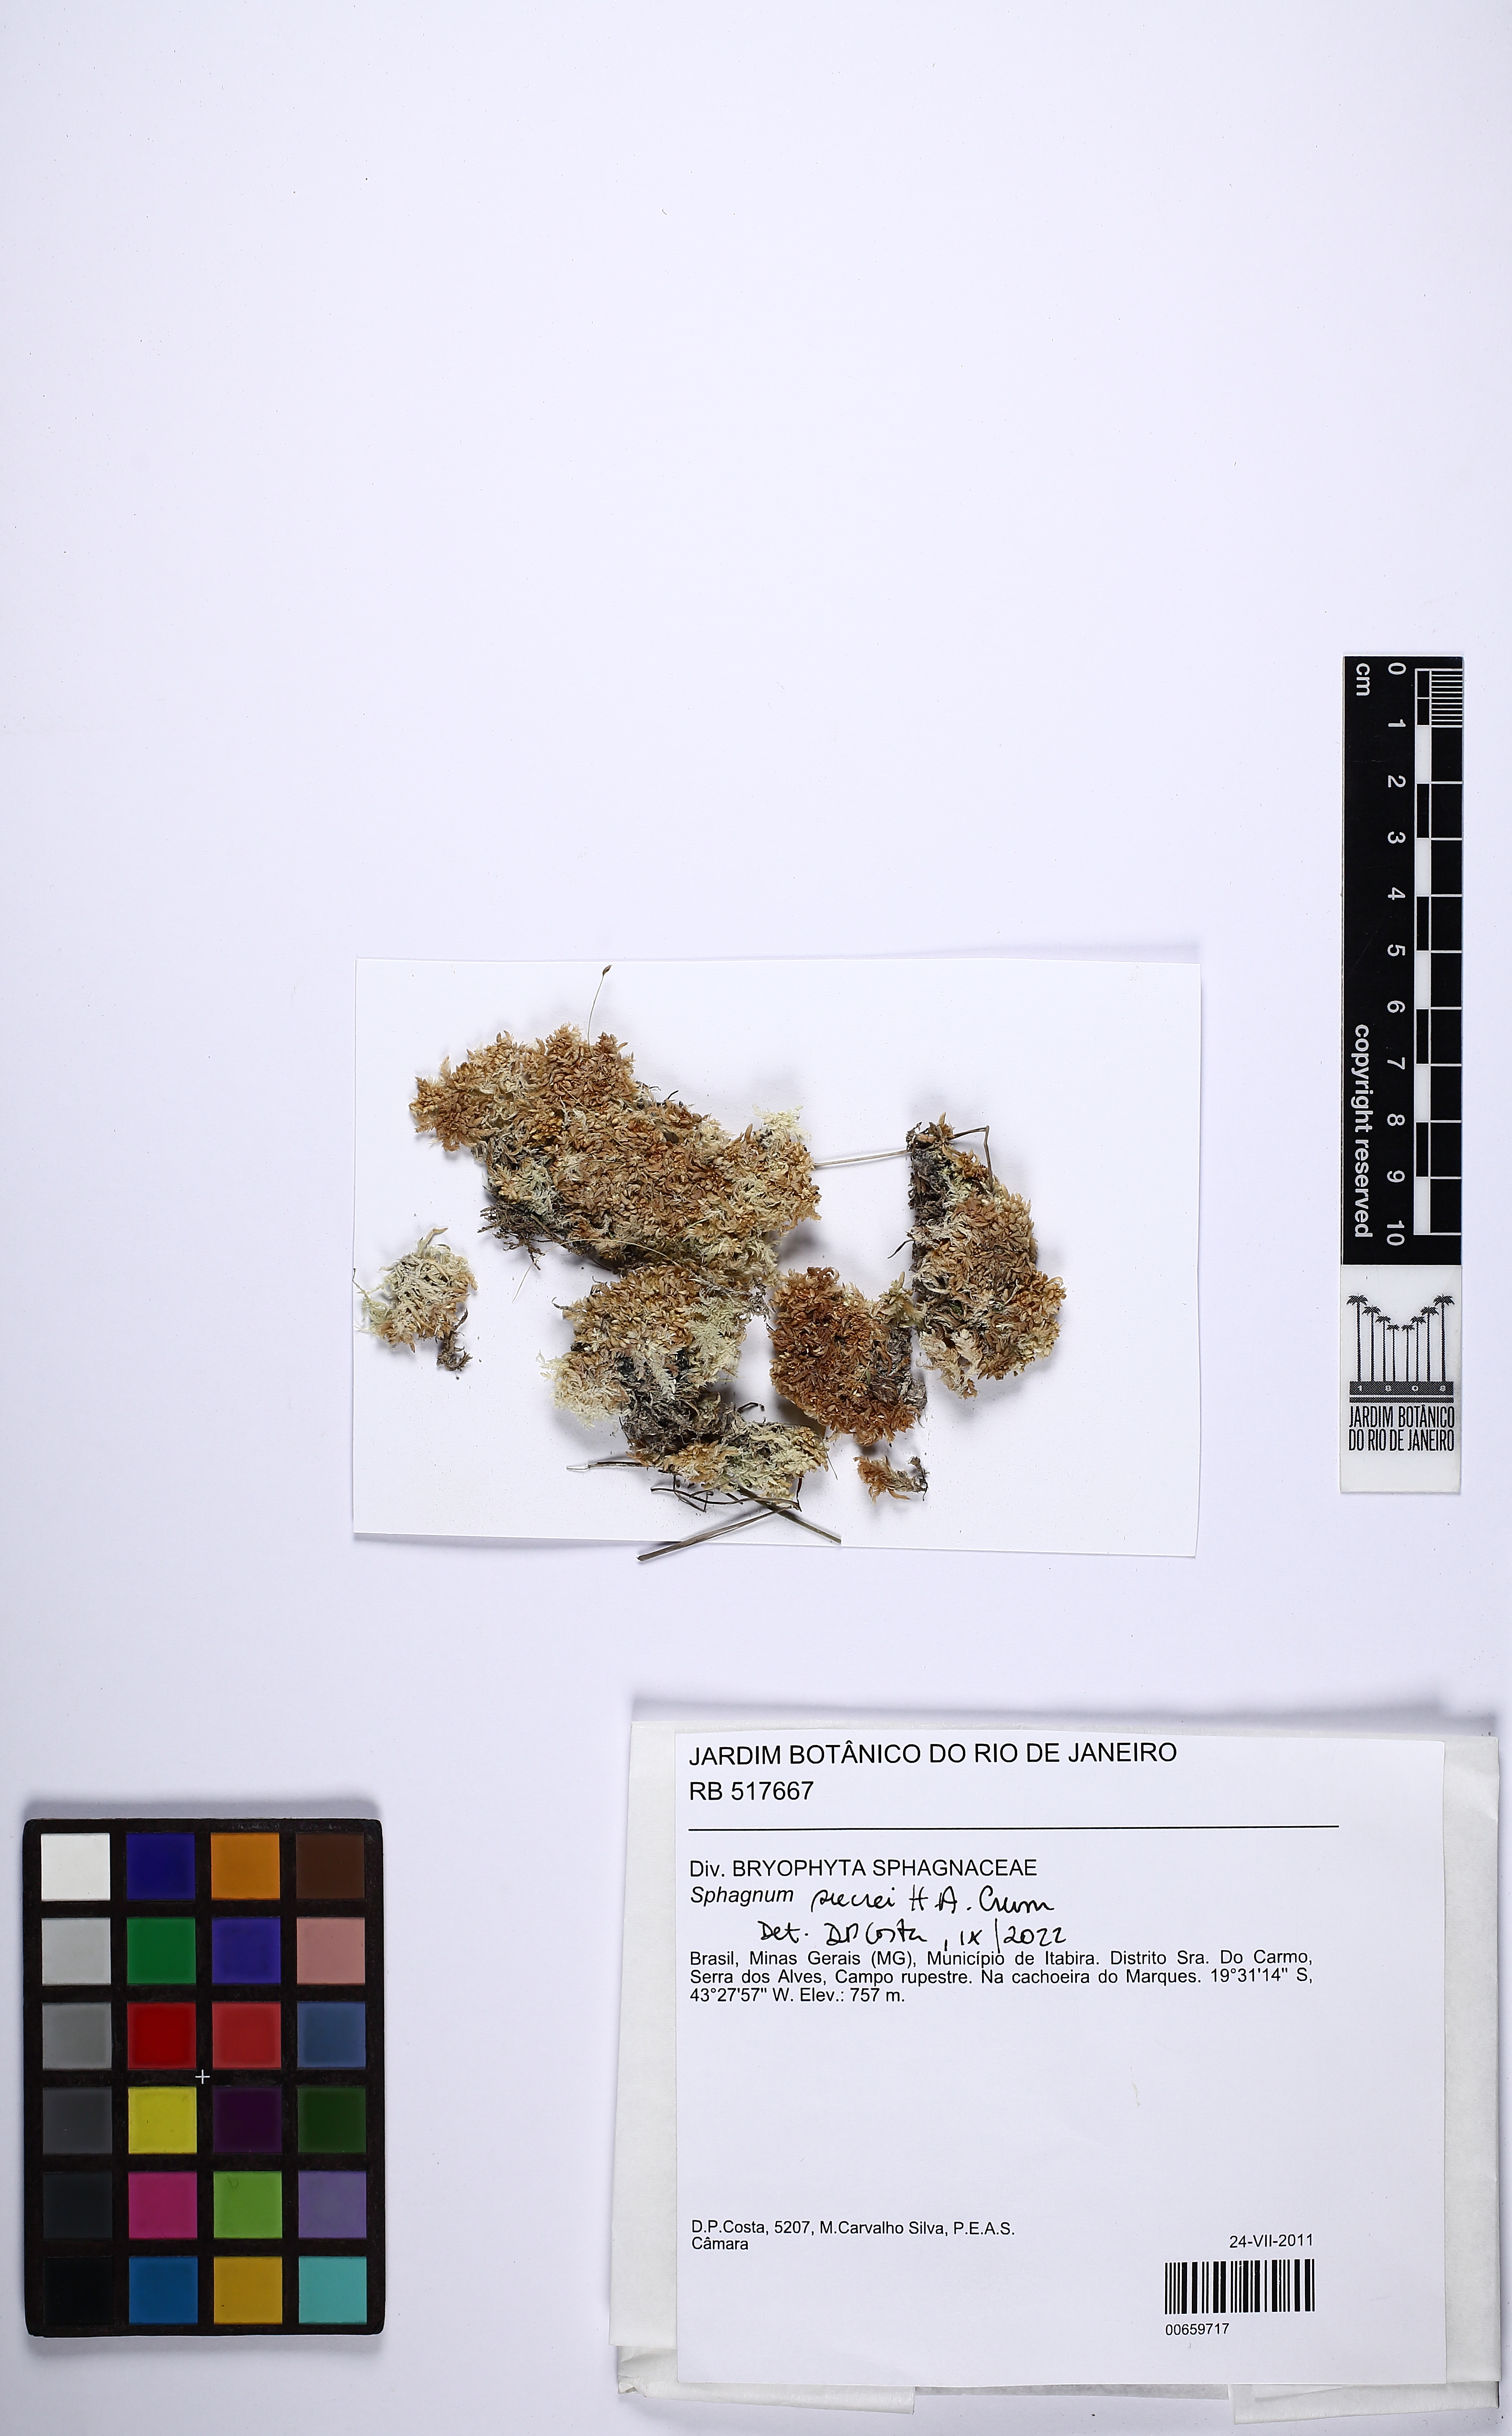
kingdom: Plantae
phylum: Bryophyta
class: Sphagnopsida
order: Sphagnales
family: Sphagnaceae
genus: Sphagnum
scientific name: Sphagnum sucrei
